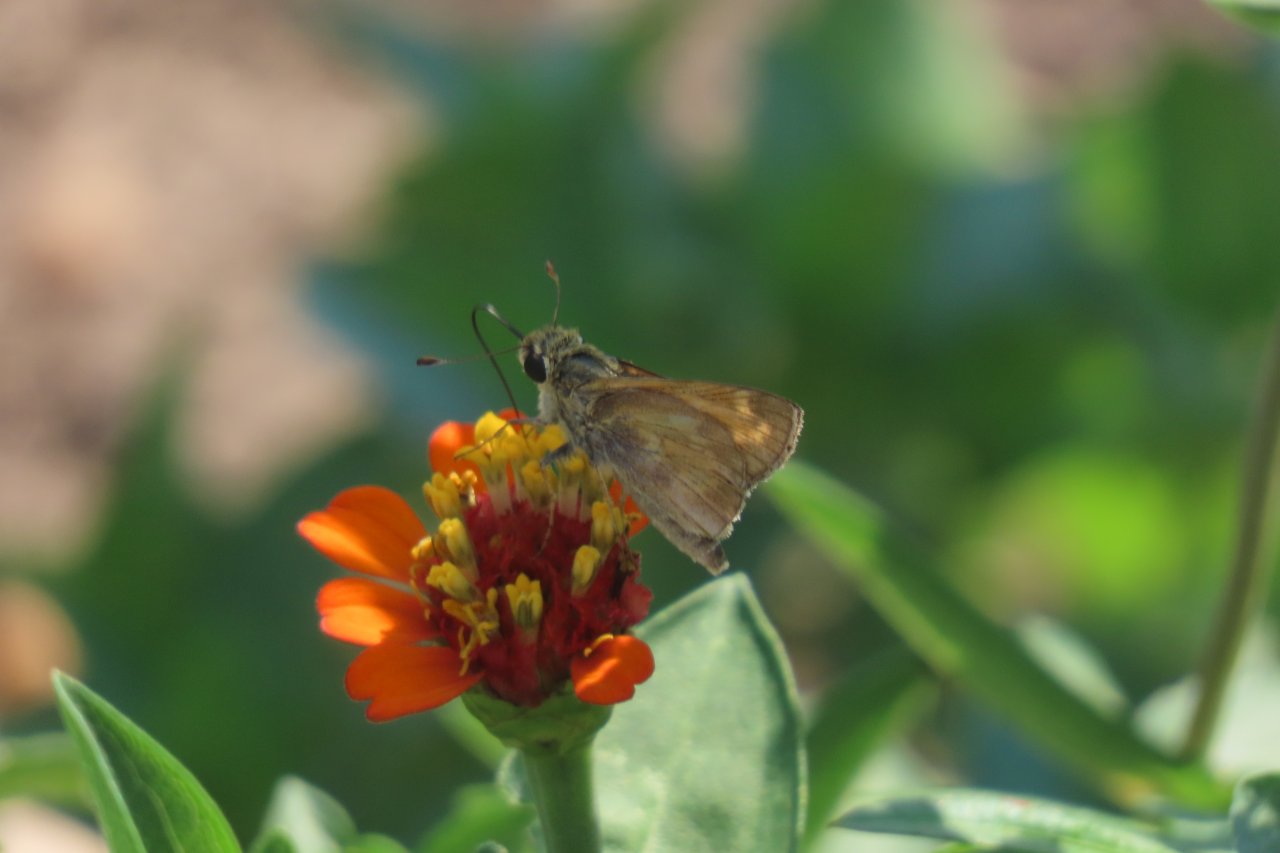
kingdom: Animalia
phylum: Arthropoda
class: Insecta
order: Lepidoptera
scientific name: Lepidoptera
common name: Butterflies
